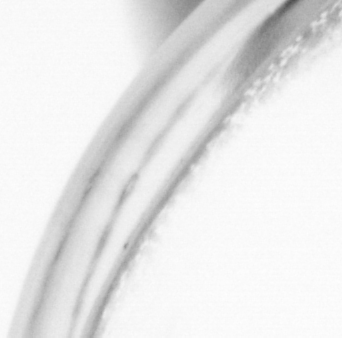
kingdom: Animalia
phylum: Chordata
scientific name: Chordata
